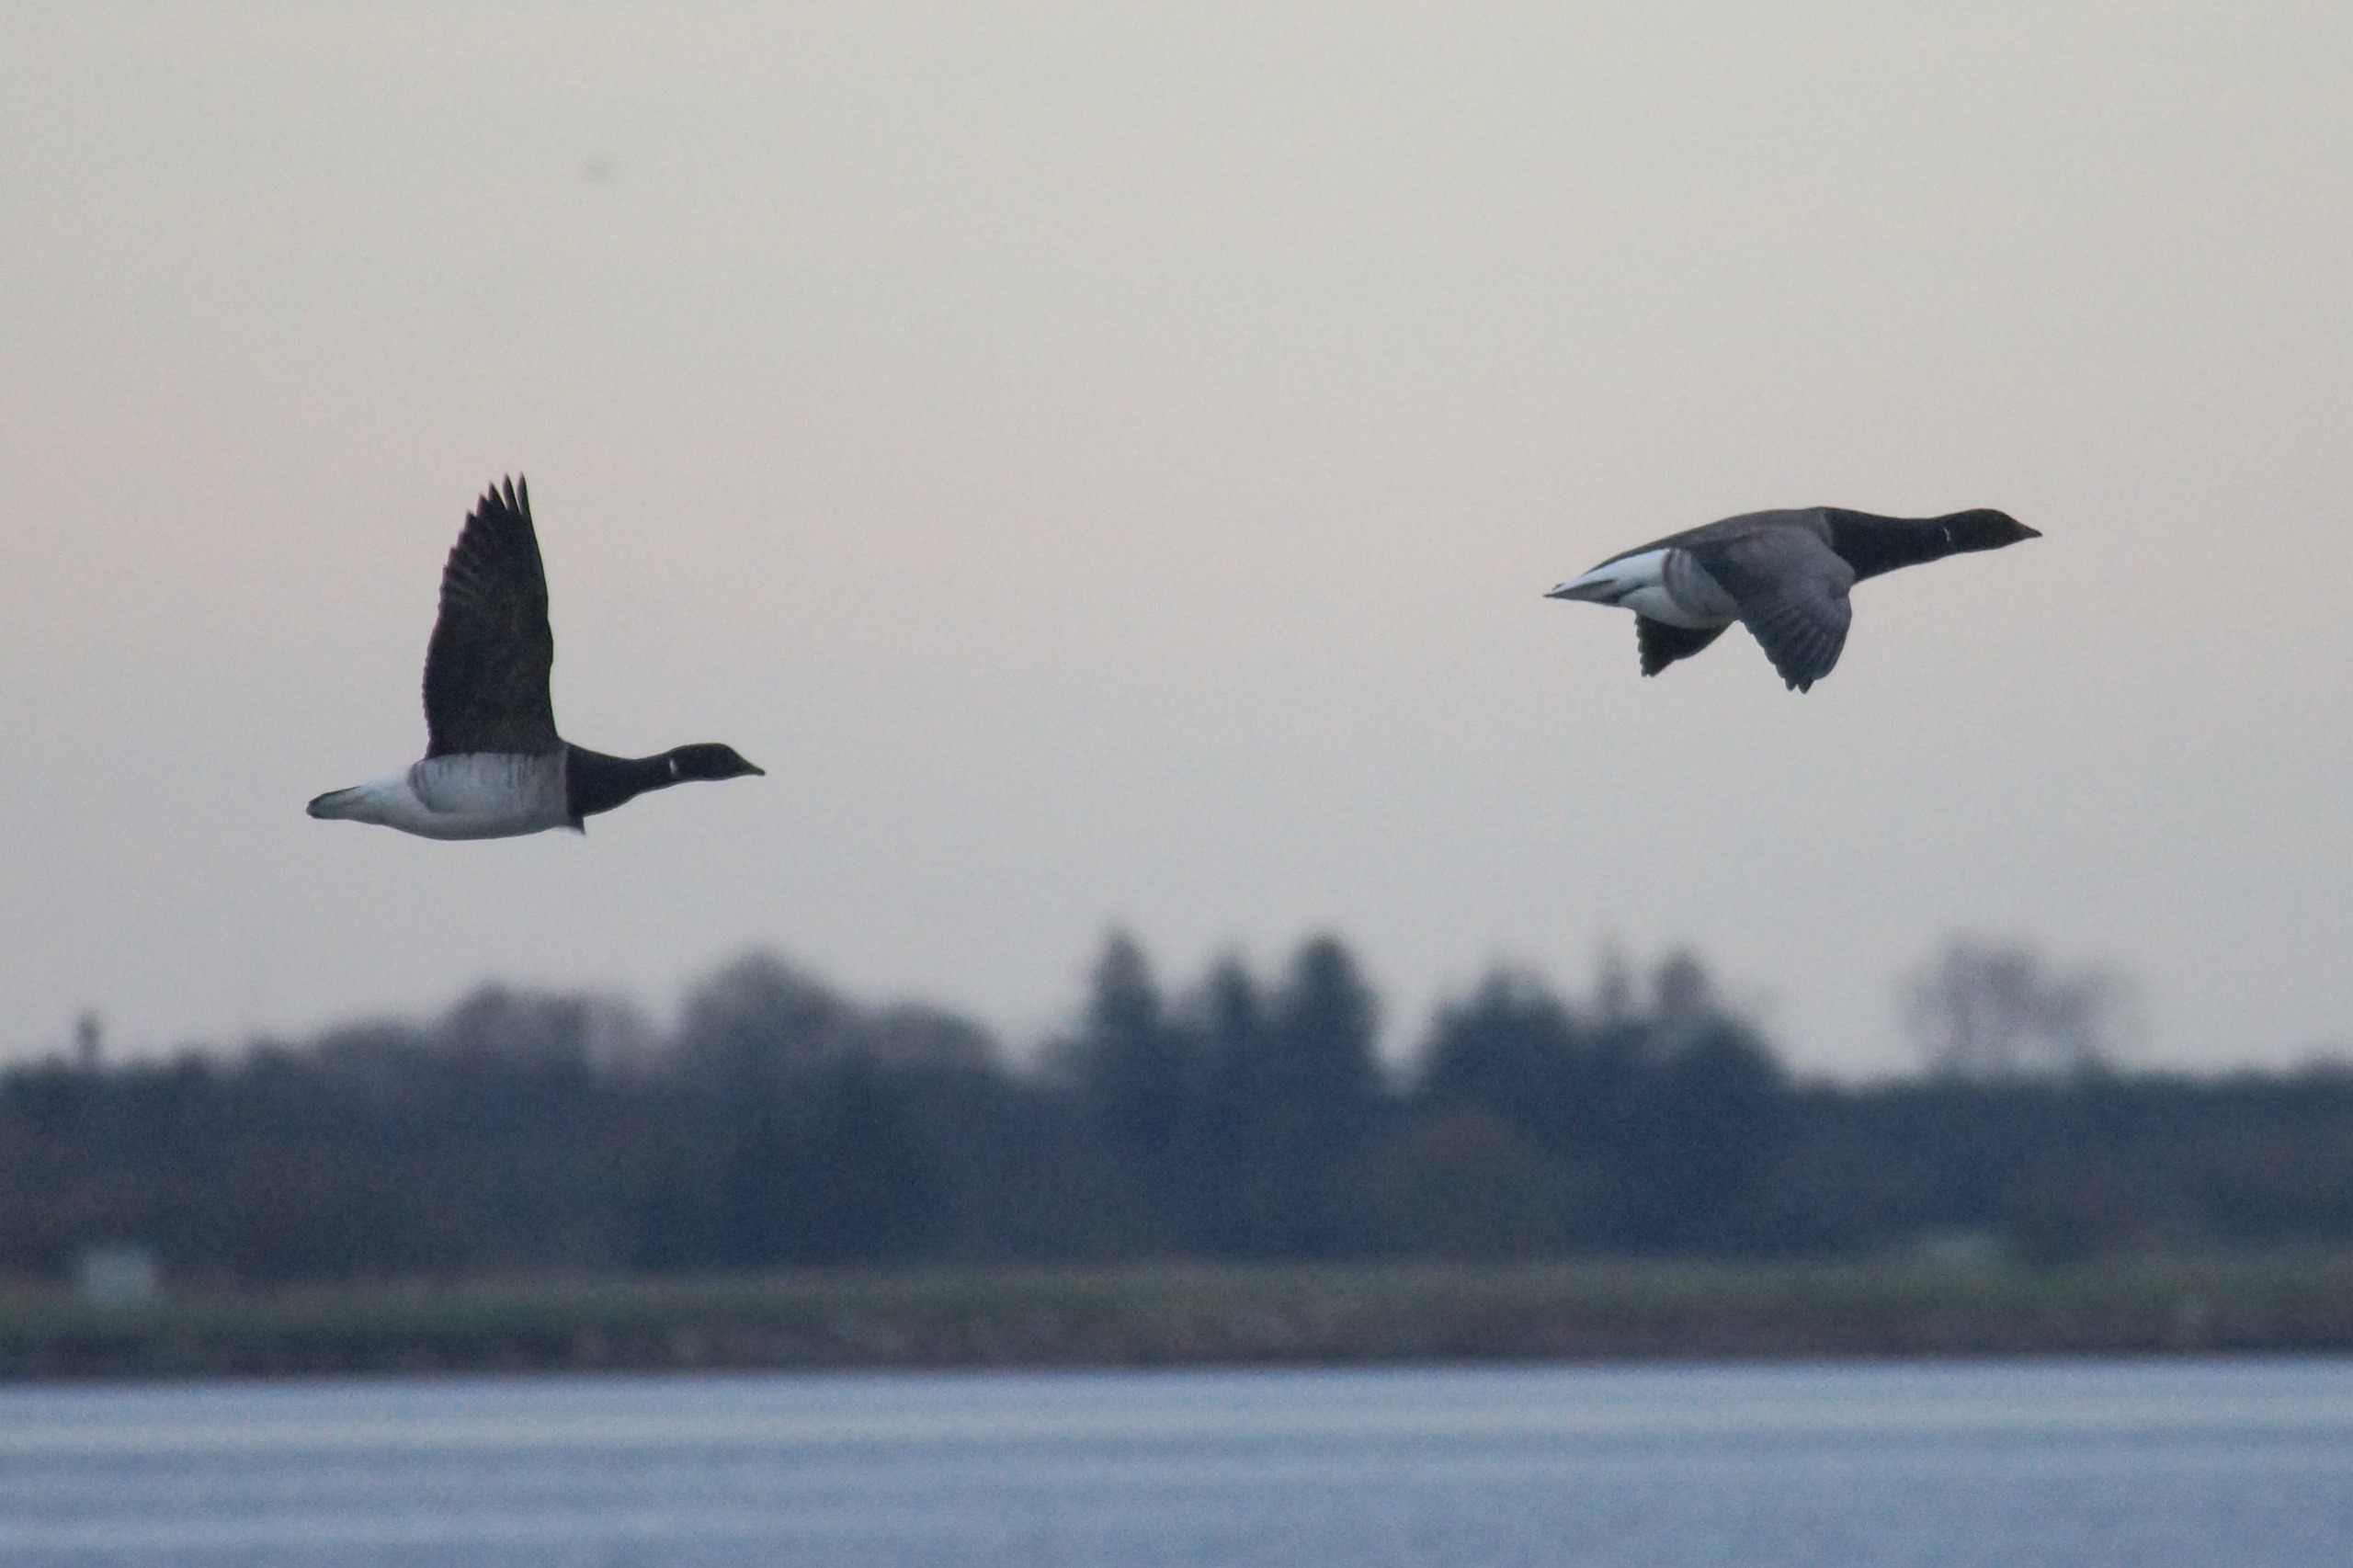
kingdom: Animalia
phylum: Chordata
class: Aves
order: Anseriformes
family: Anatidae
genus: Branta
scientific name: Branta bernicla
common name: Lysbuget knortegås
